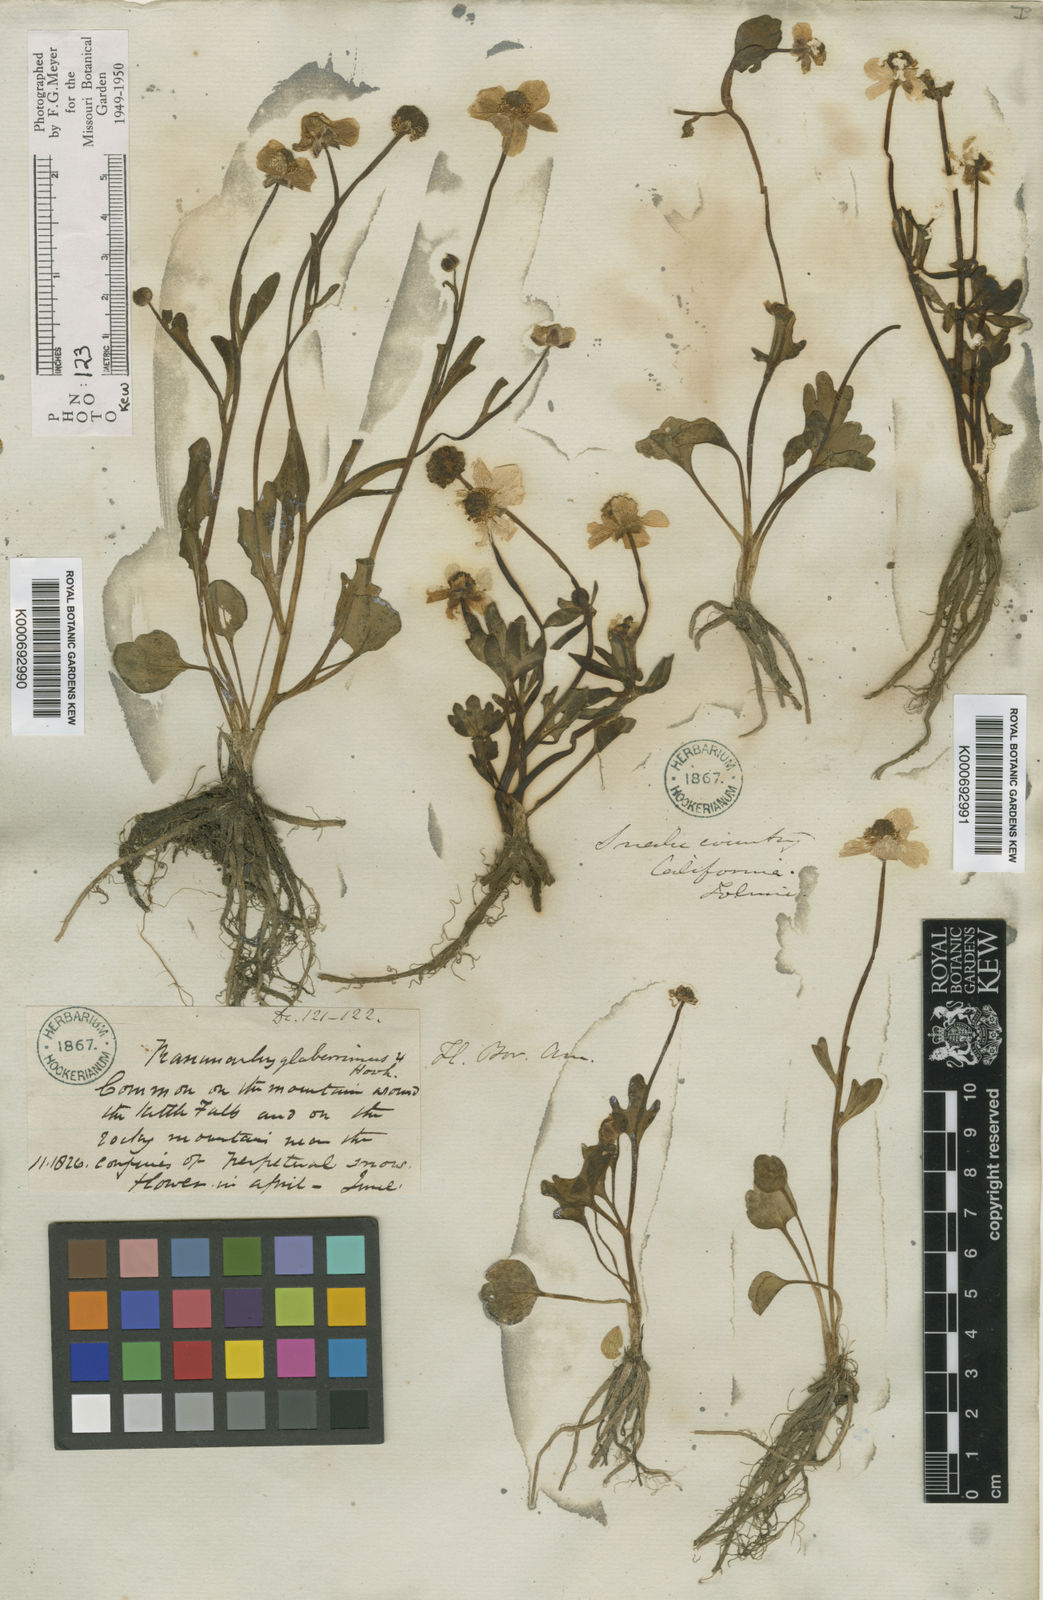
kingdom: Plantae
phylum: Tracheophyta
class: Magnoliopsida
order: Ranunculales
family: Ranunculaceae
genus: Ranunculus
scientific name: Ranunculus glaberrimus
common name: Sagebrush buttercup
